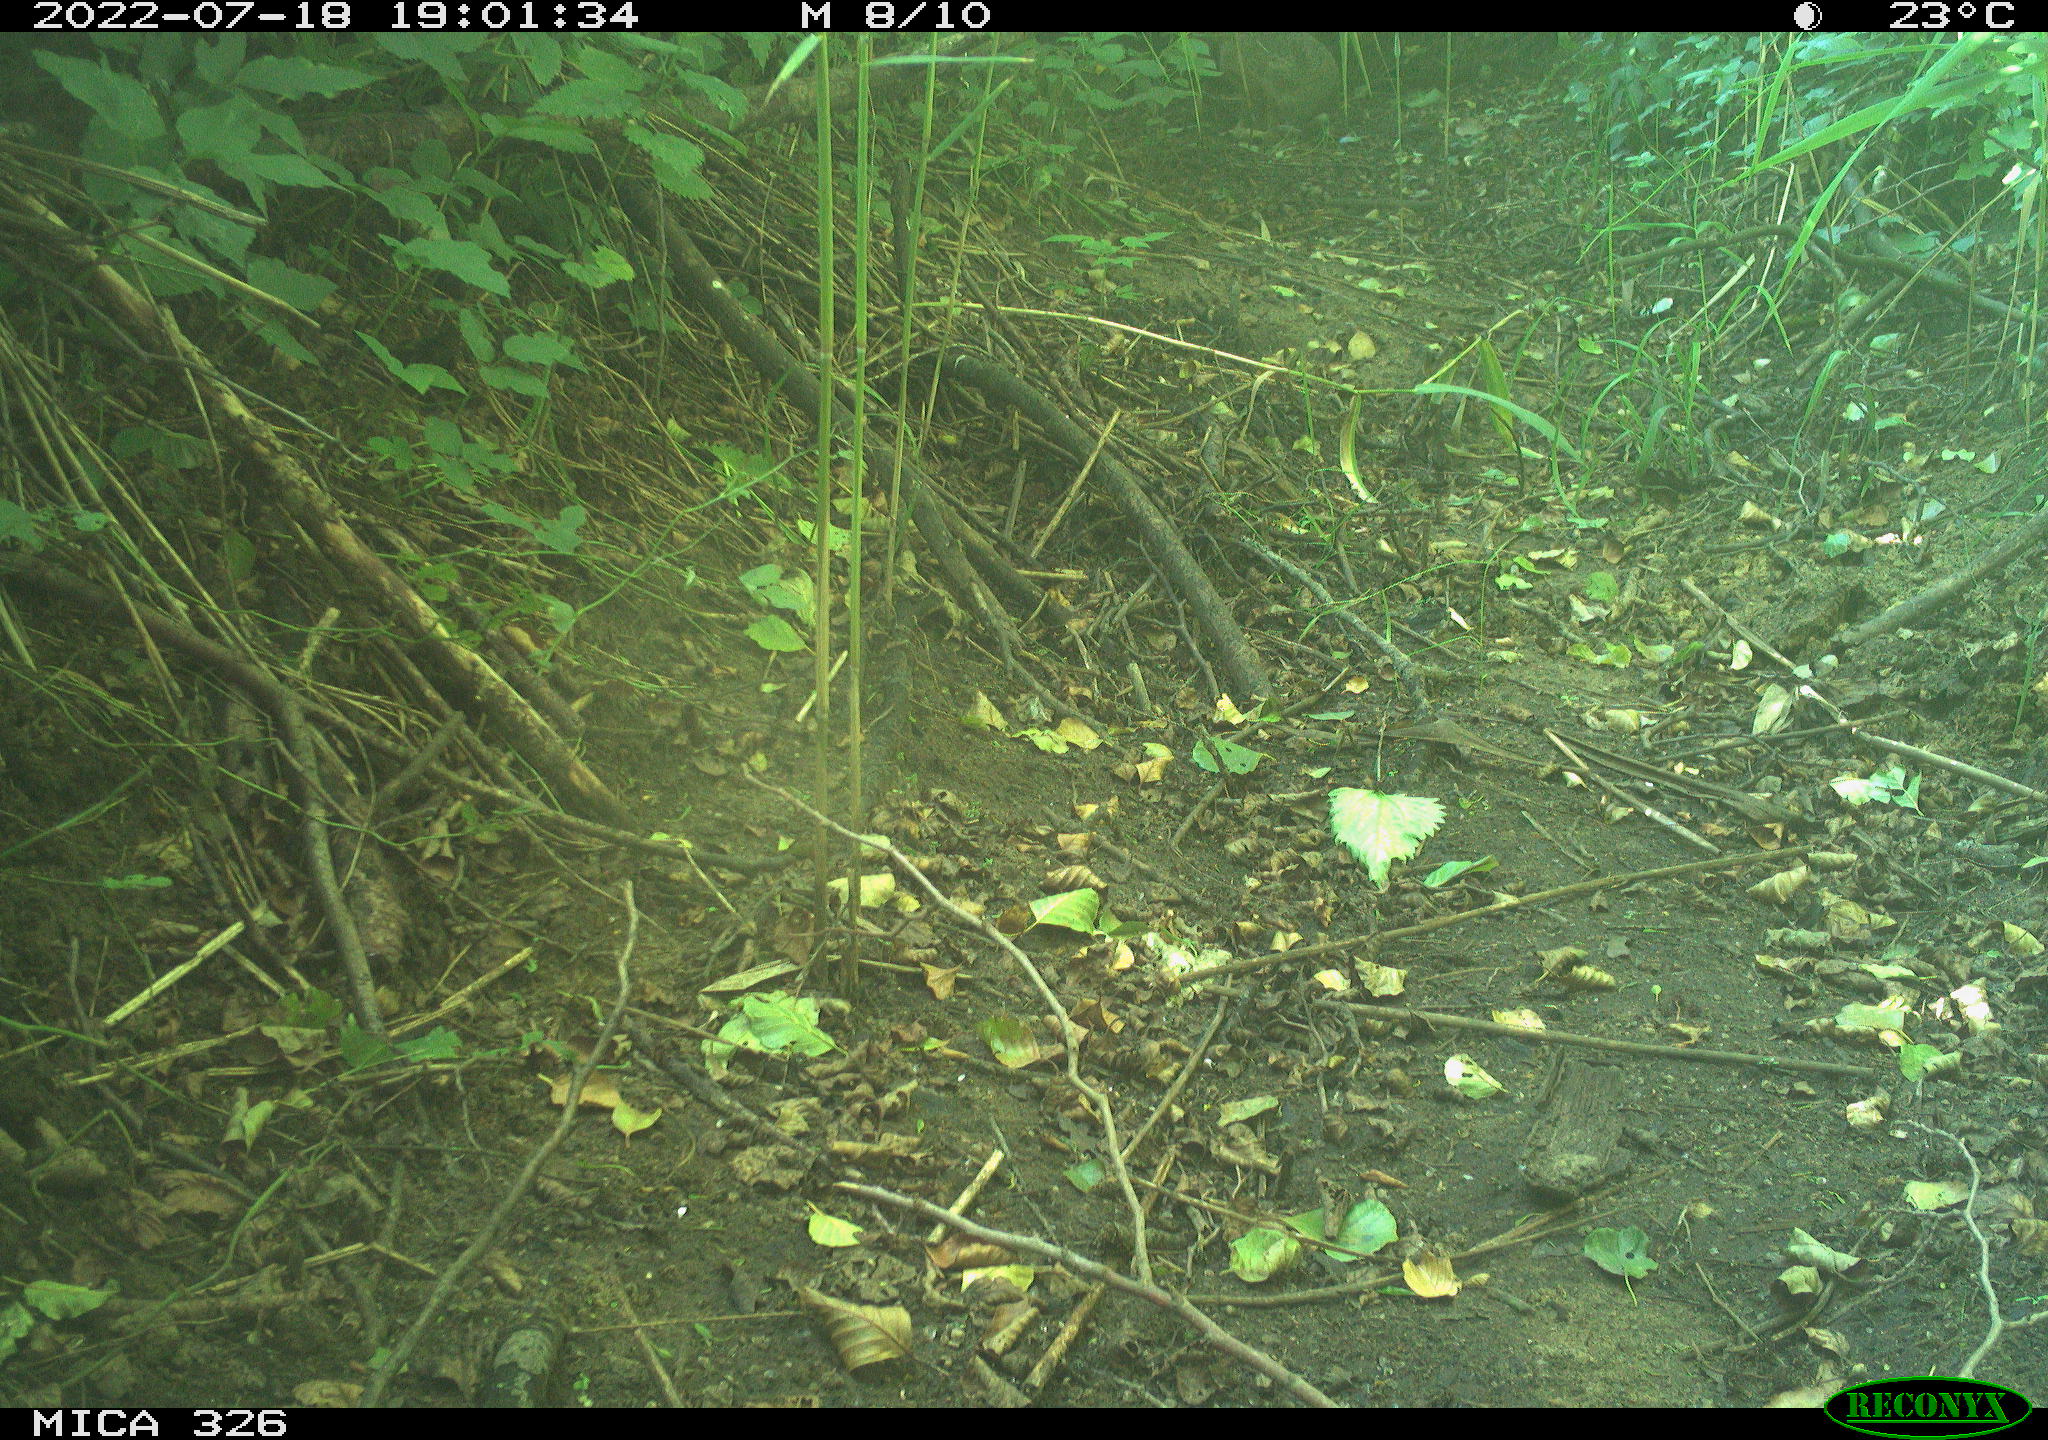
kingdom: Animalia
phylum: Chordata
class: Mammalia
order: Lagomorpha
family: Leporidae
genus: Lepus
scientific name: Lepus europaeus
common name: European hare
